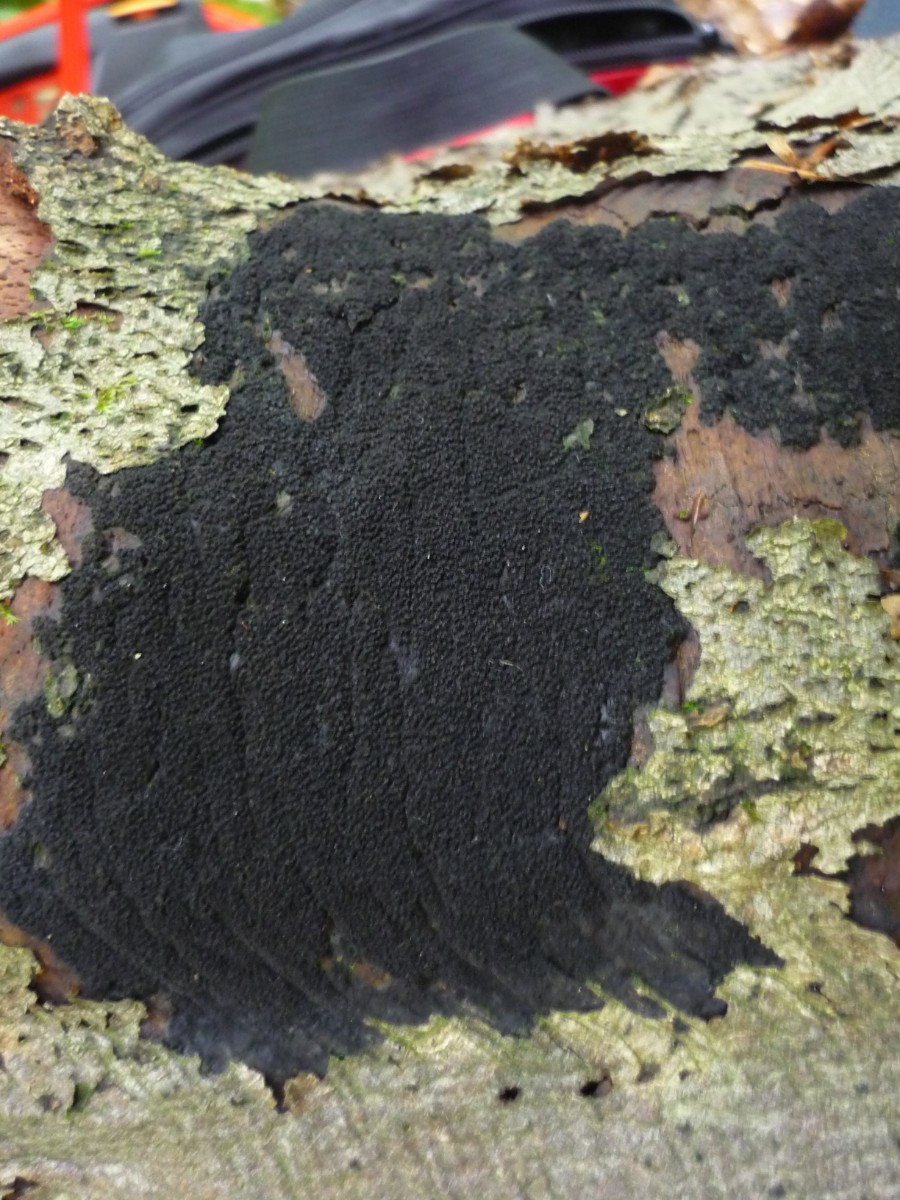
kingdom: Fungi
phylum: Ascomycota
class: Sordariomycetes
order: Xylariales
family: Diatrypaceae
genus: Eutypa
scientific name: Eutypa spinosa
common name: grov kulskorpe
